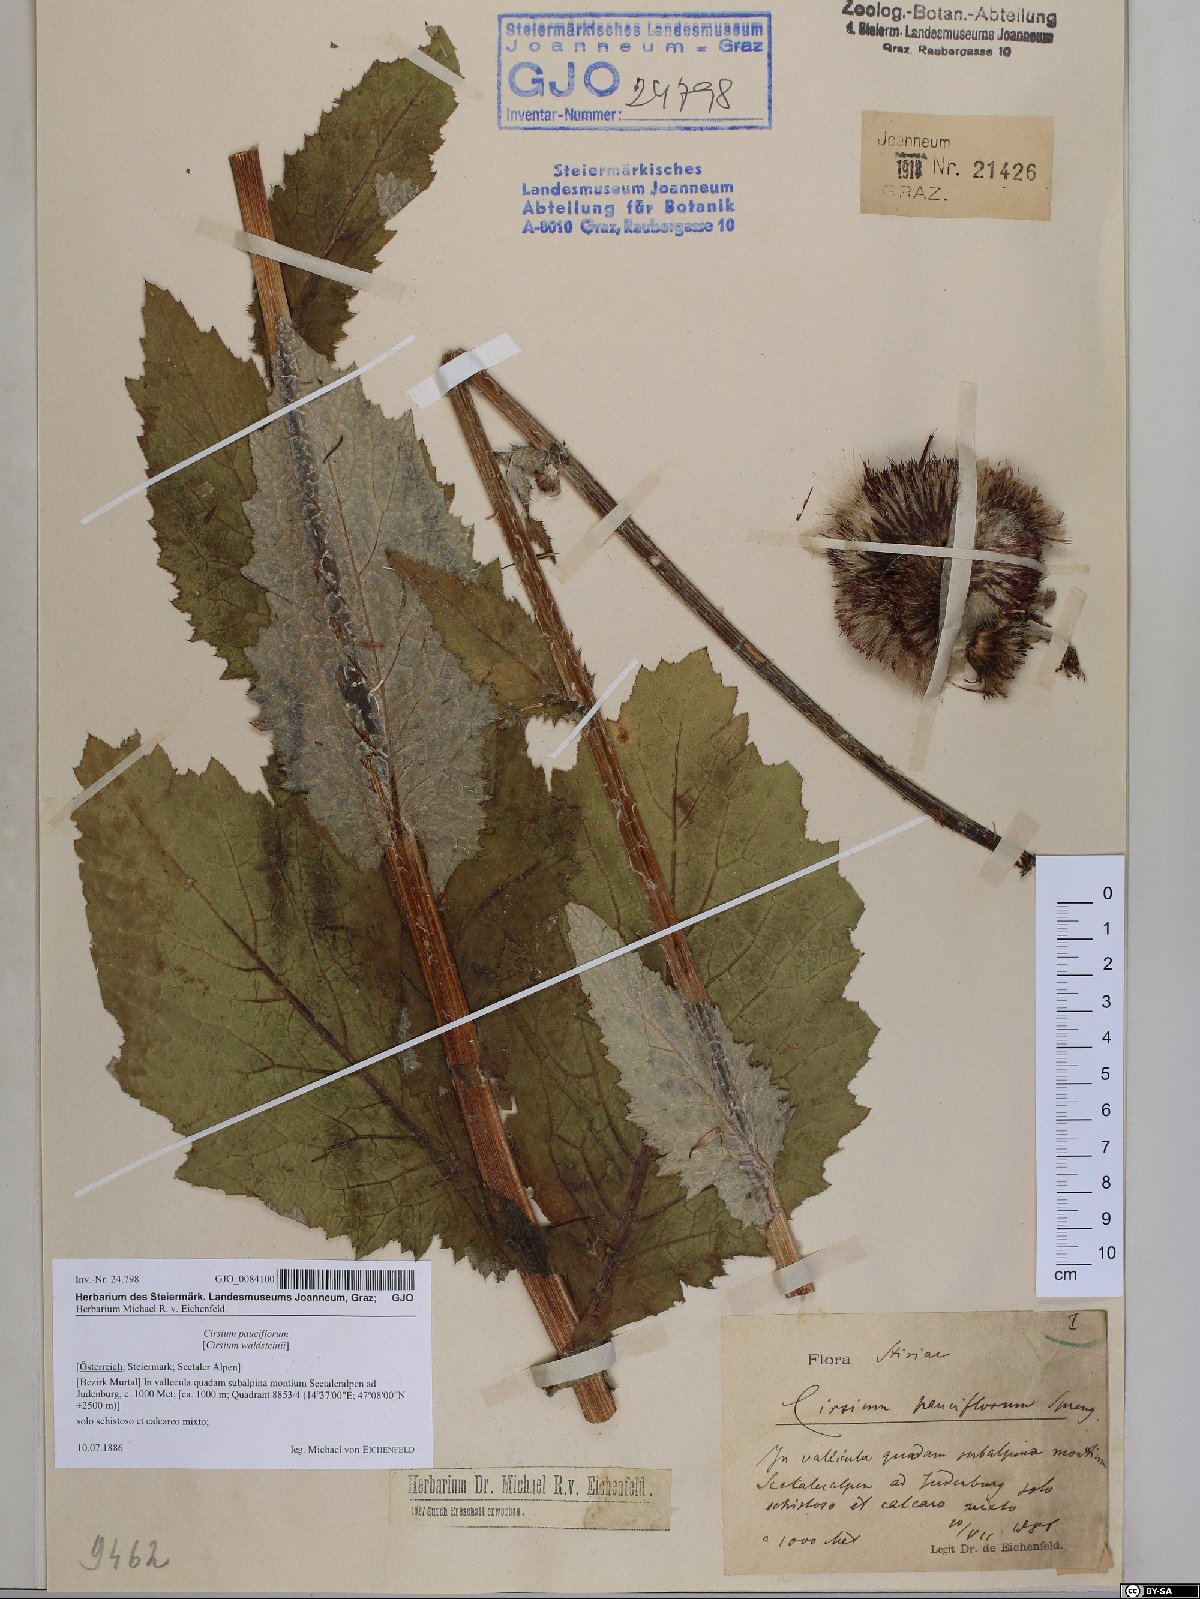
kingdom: Plantae
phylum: Tracheophyta
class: Magnoliopsida
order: Asterales
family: Asteraceae
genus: Cirsium
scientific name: Cirsium greimleri
